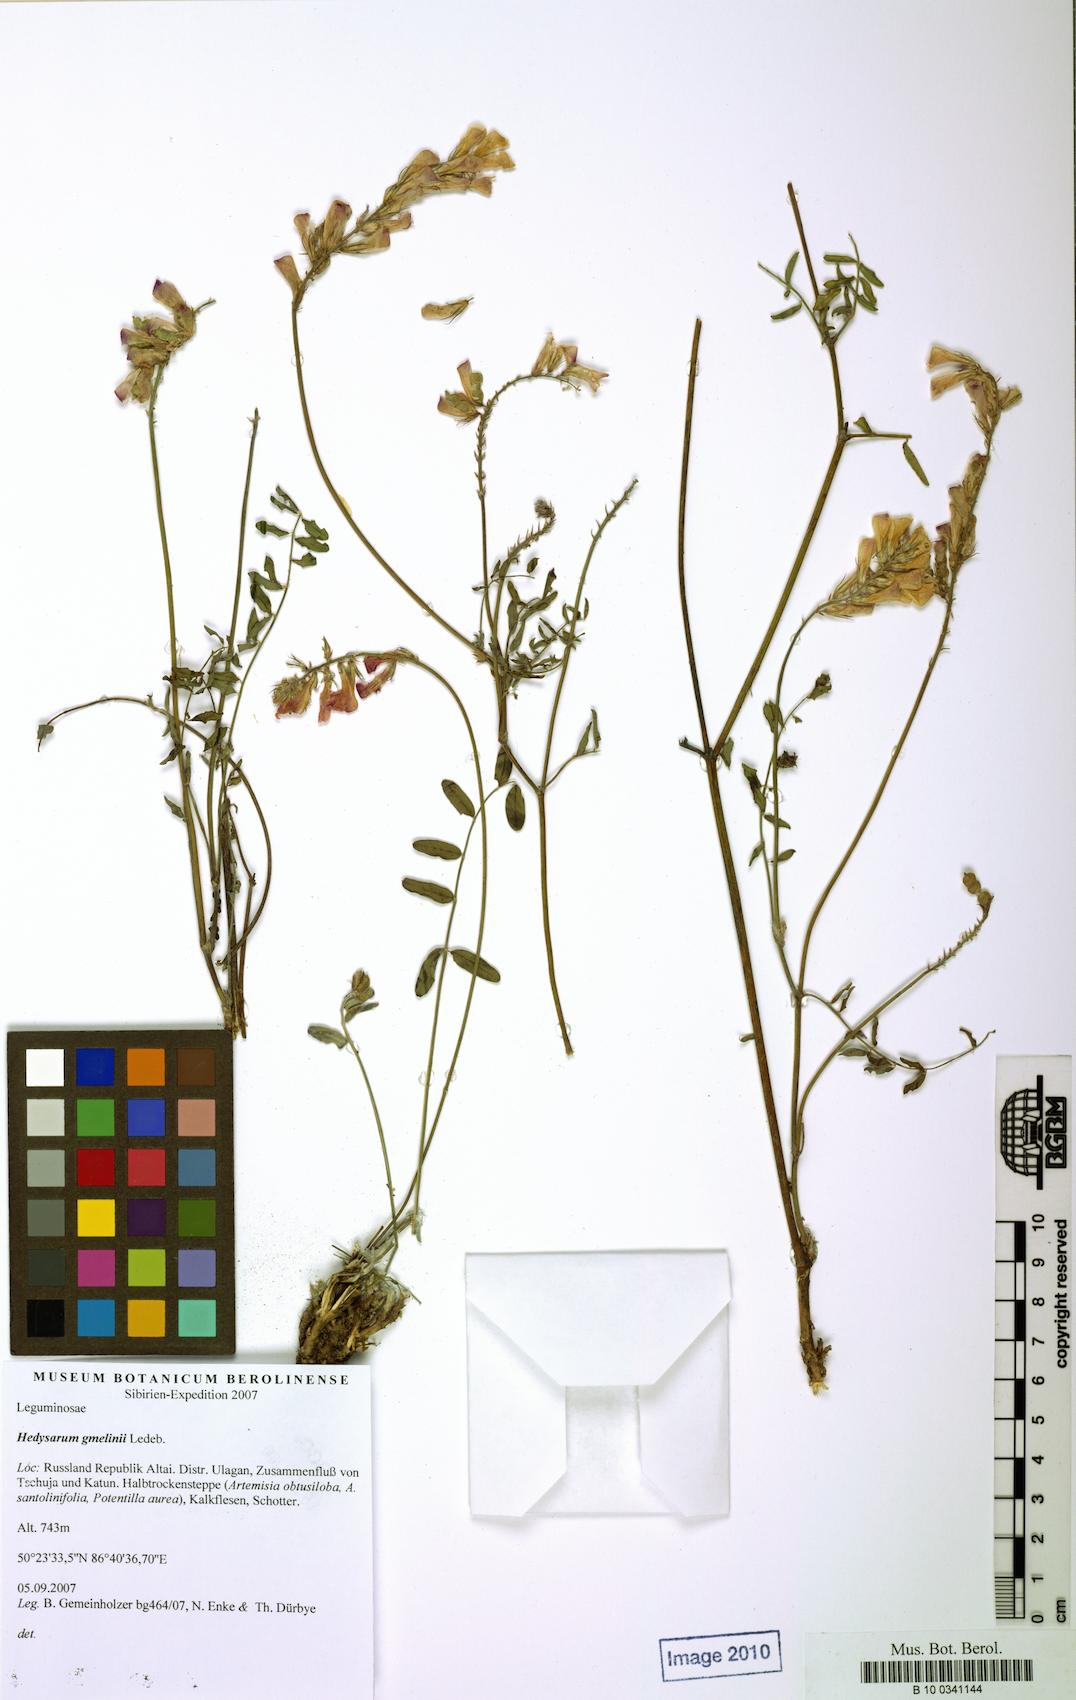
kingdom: Plantae
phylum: Tracheophyta
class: Magnoliopsida
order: Fabales
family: Fabaceae
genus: Hedysarum
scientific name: Hedysarum gmelinii
